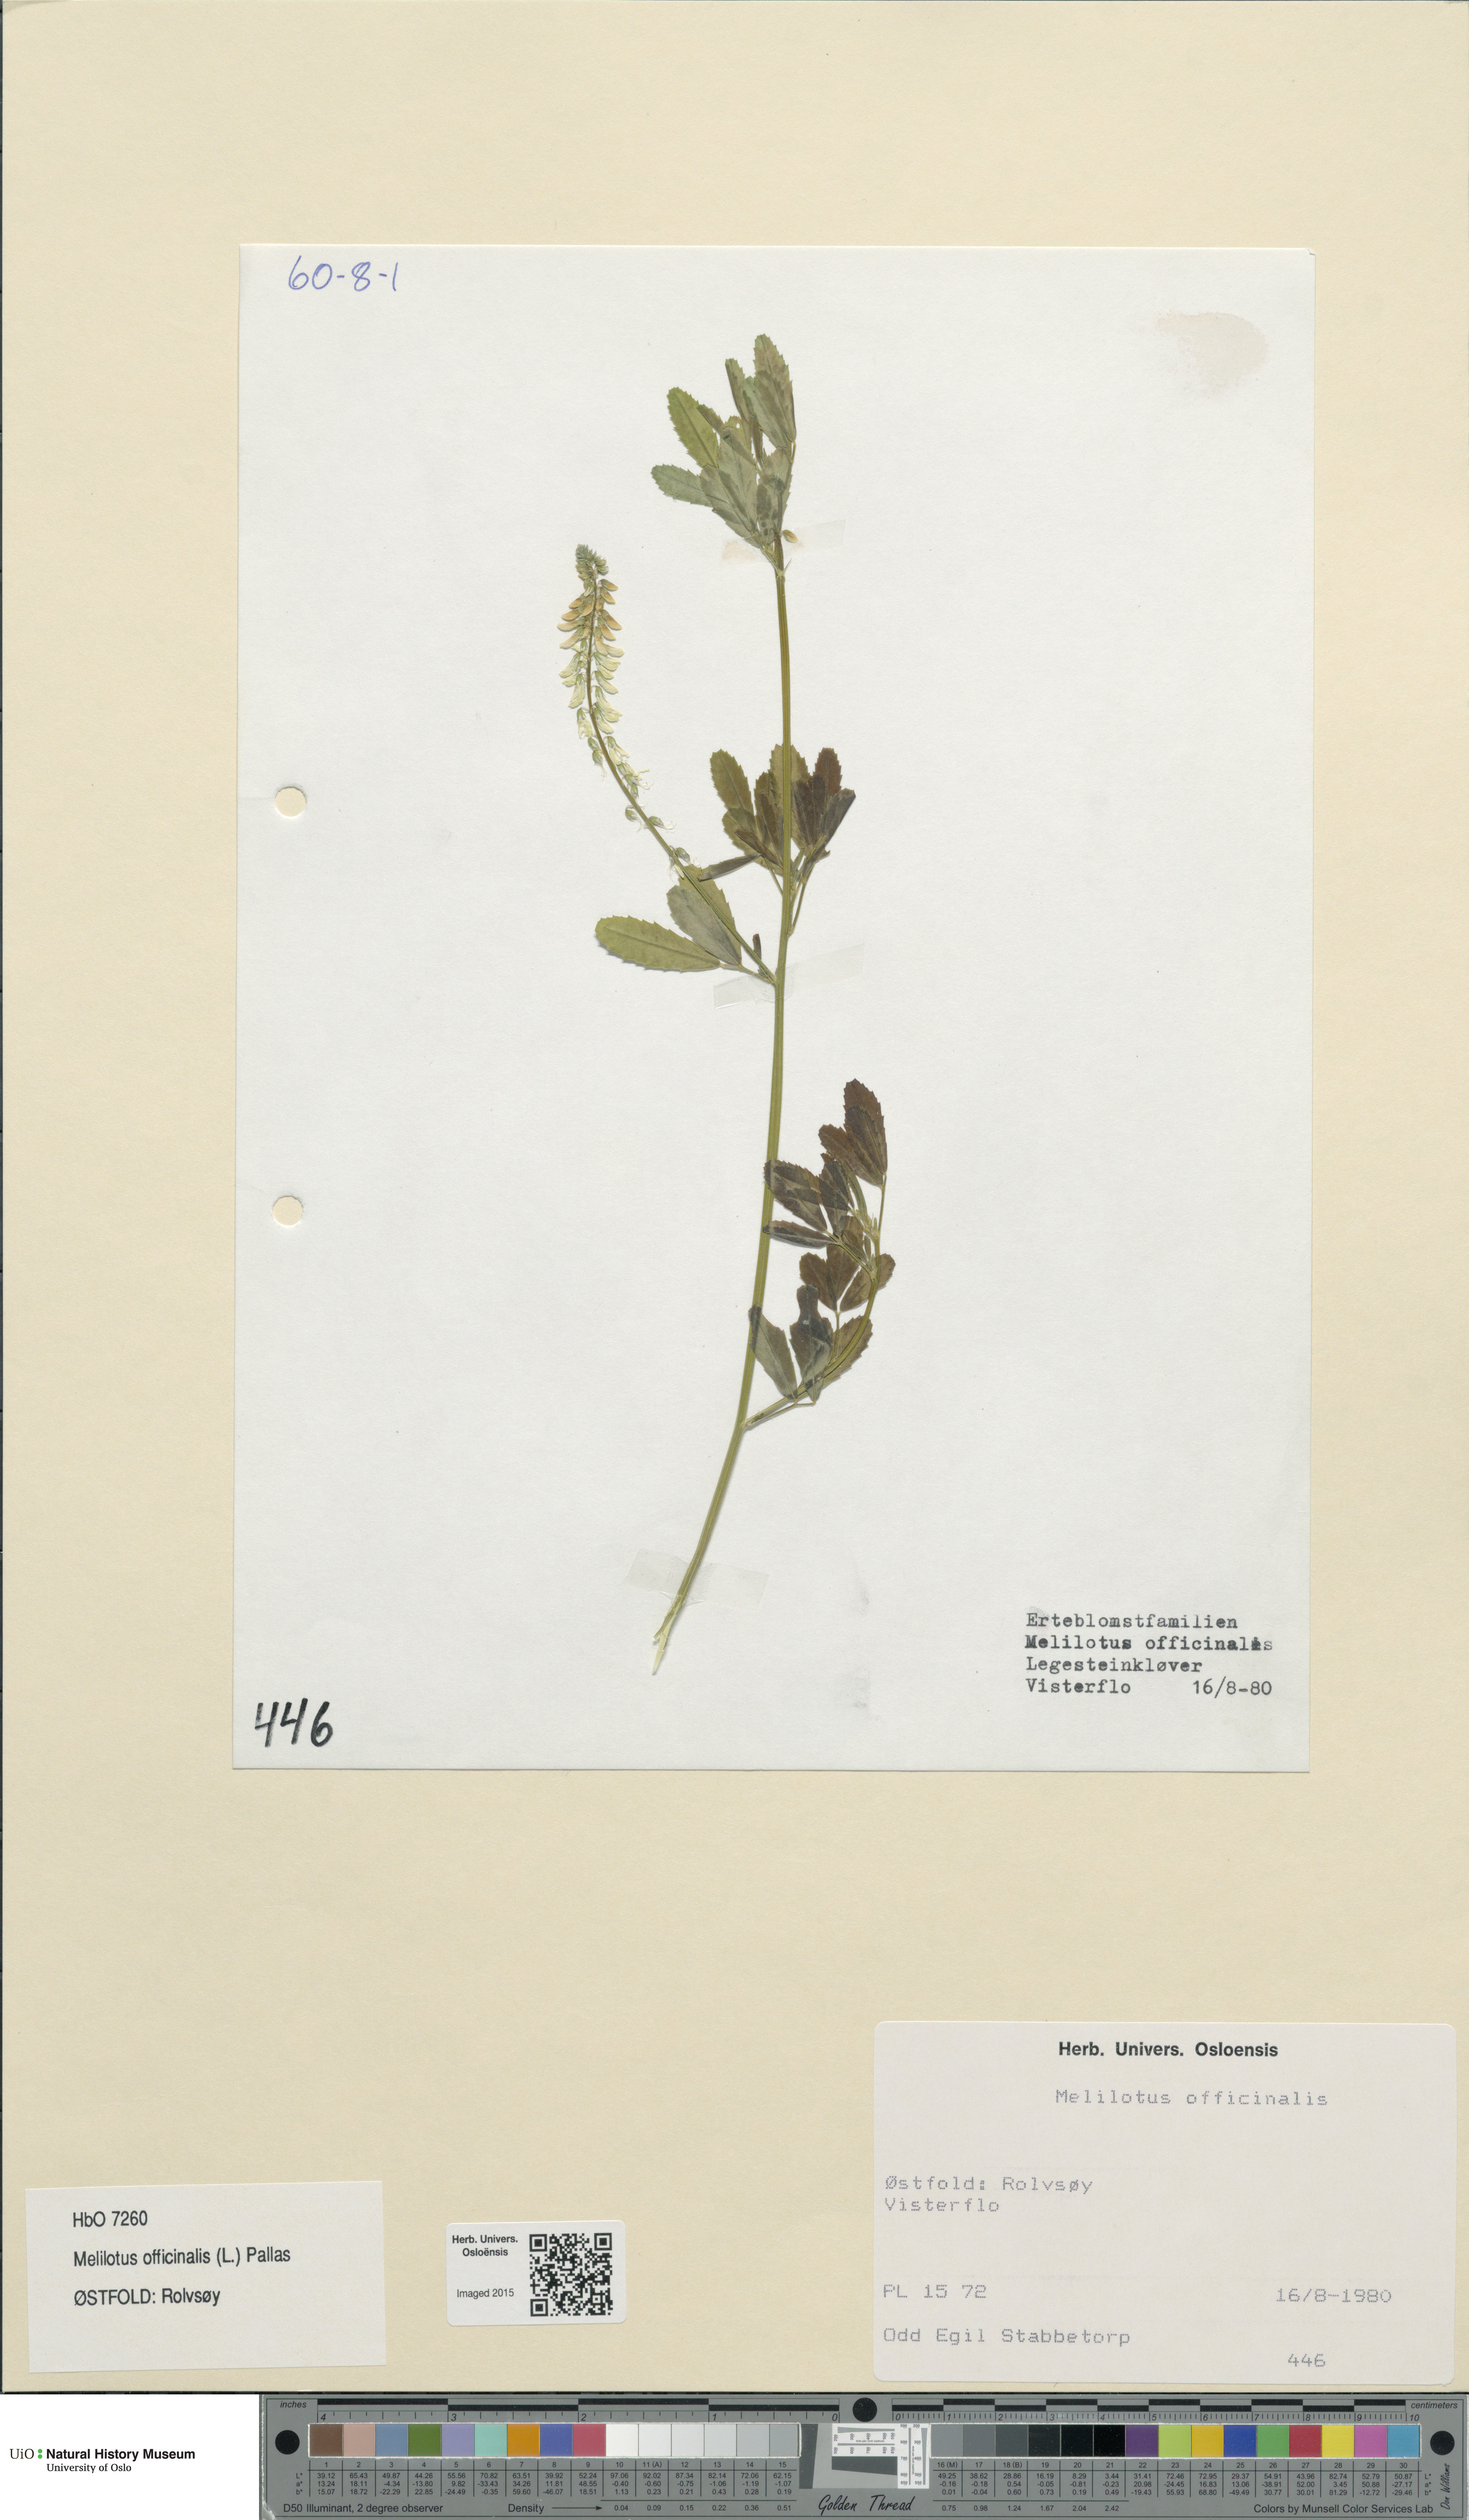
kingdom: Plantae
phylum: Tracheophyta
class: Magnoliopsida
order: Fabales
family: Fabaceae
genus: Melilotus
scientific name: Melilotus officinalis
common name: Sweetclover
